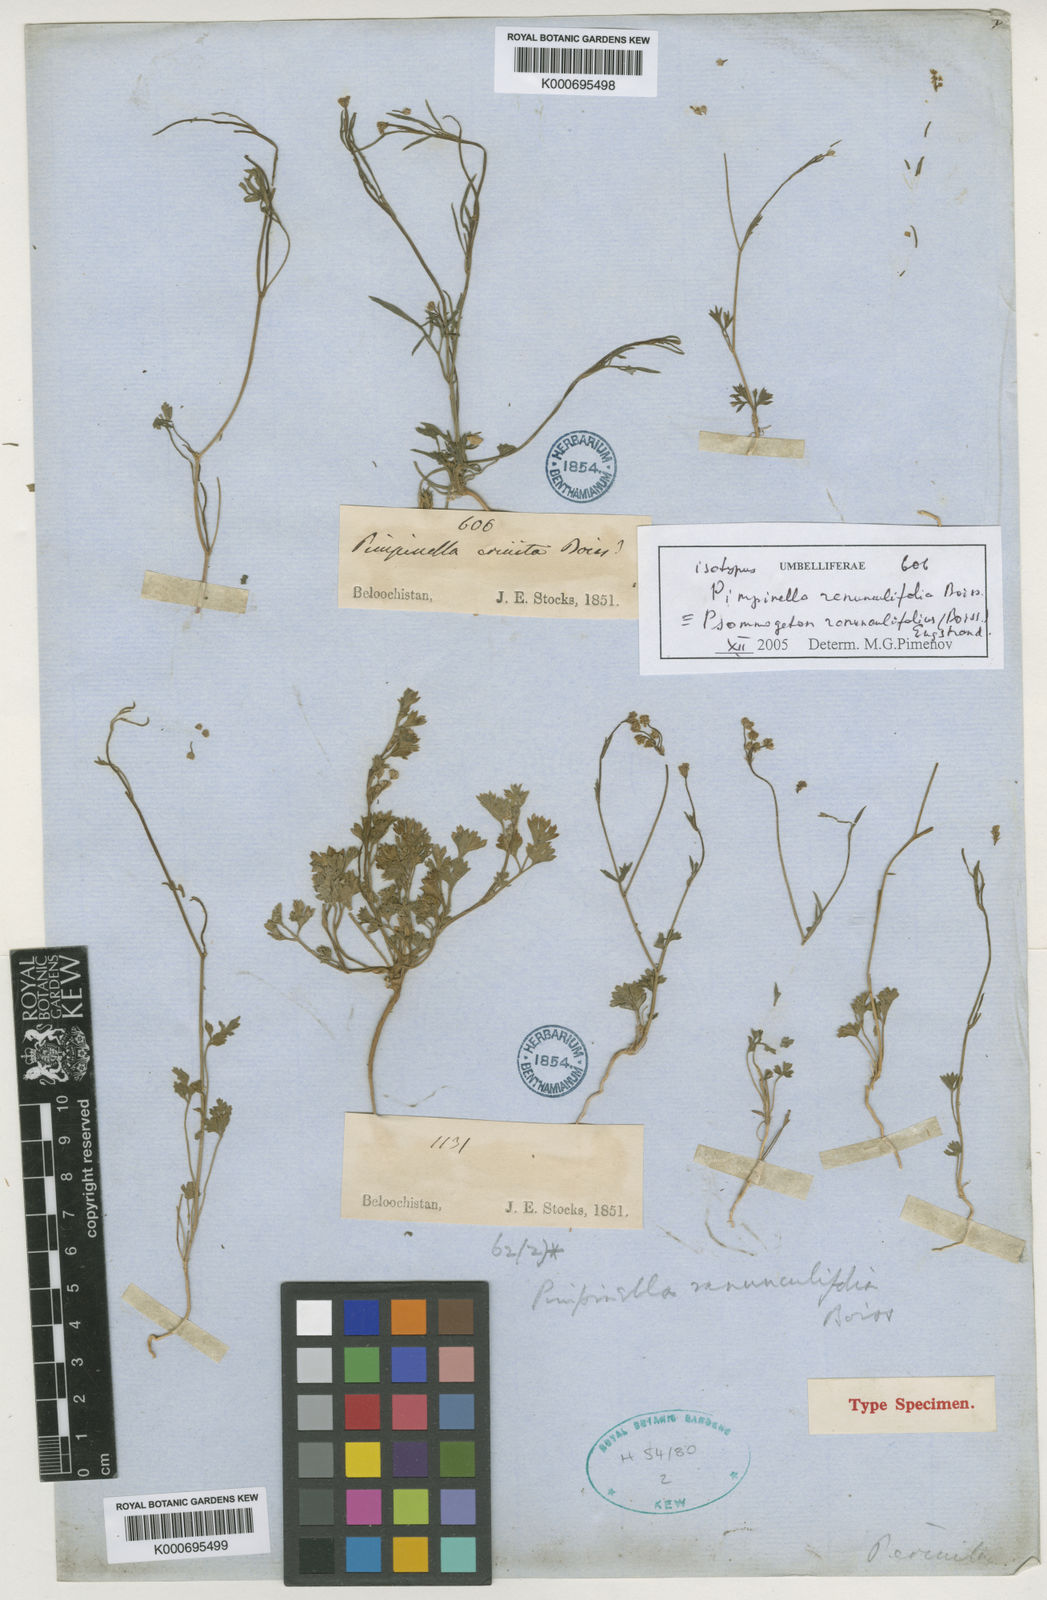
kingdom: Plantae
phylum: Tracheophyta
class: Magnoliopsida
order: Apiales
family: Apiaceae
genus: Psammogeton
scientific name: Psammogeton papillare
